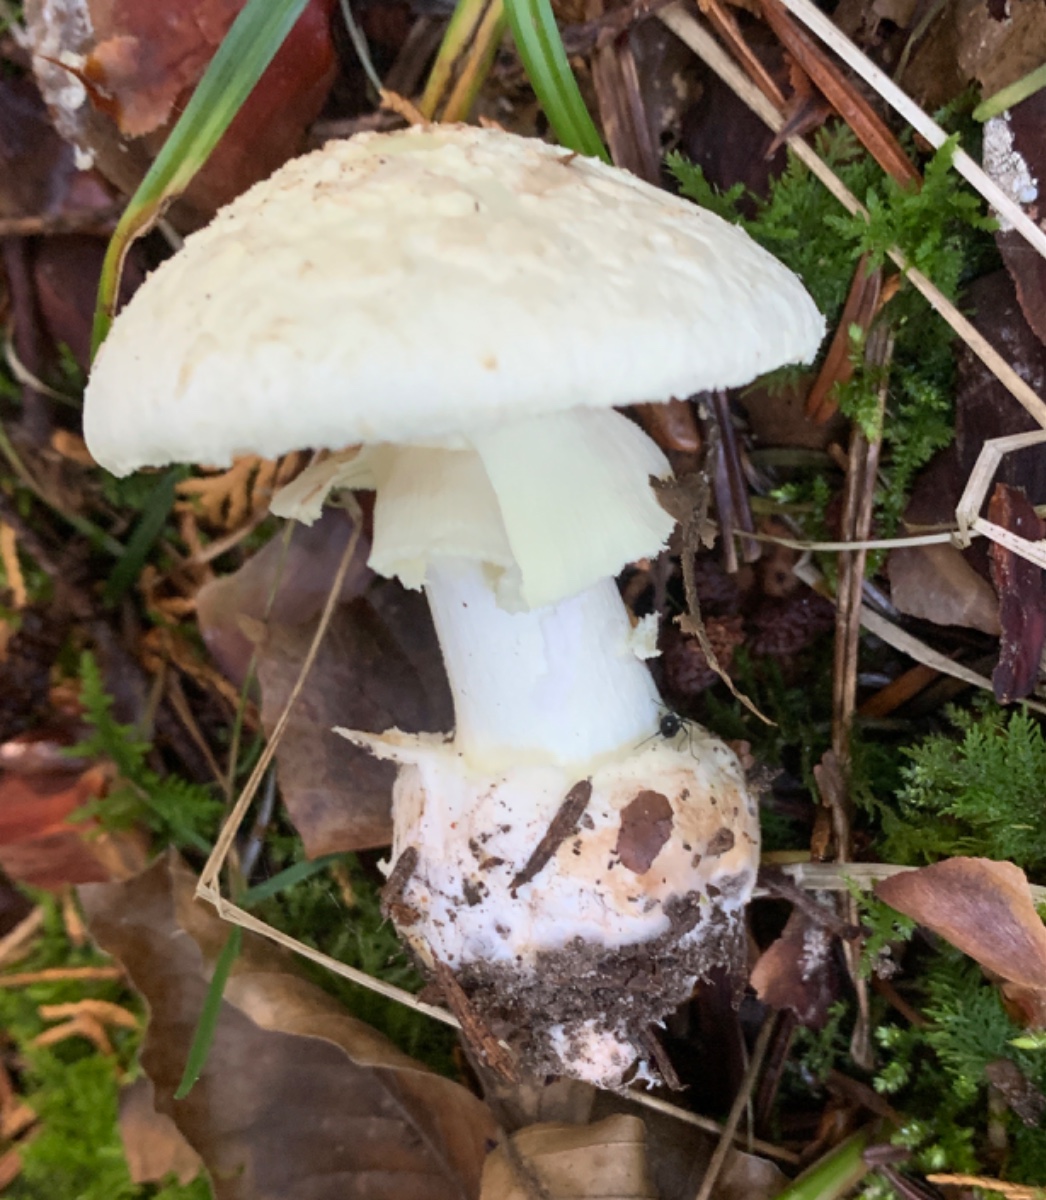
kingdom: Fungi
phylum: Basidiomycota
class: Agaricomycetes
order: Agaricales
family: Amanitaceae
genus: Amanita
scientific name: Amanita citrina
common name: kugleknoldet fluesvamp
